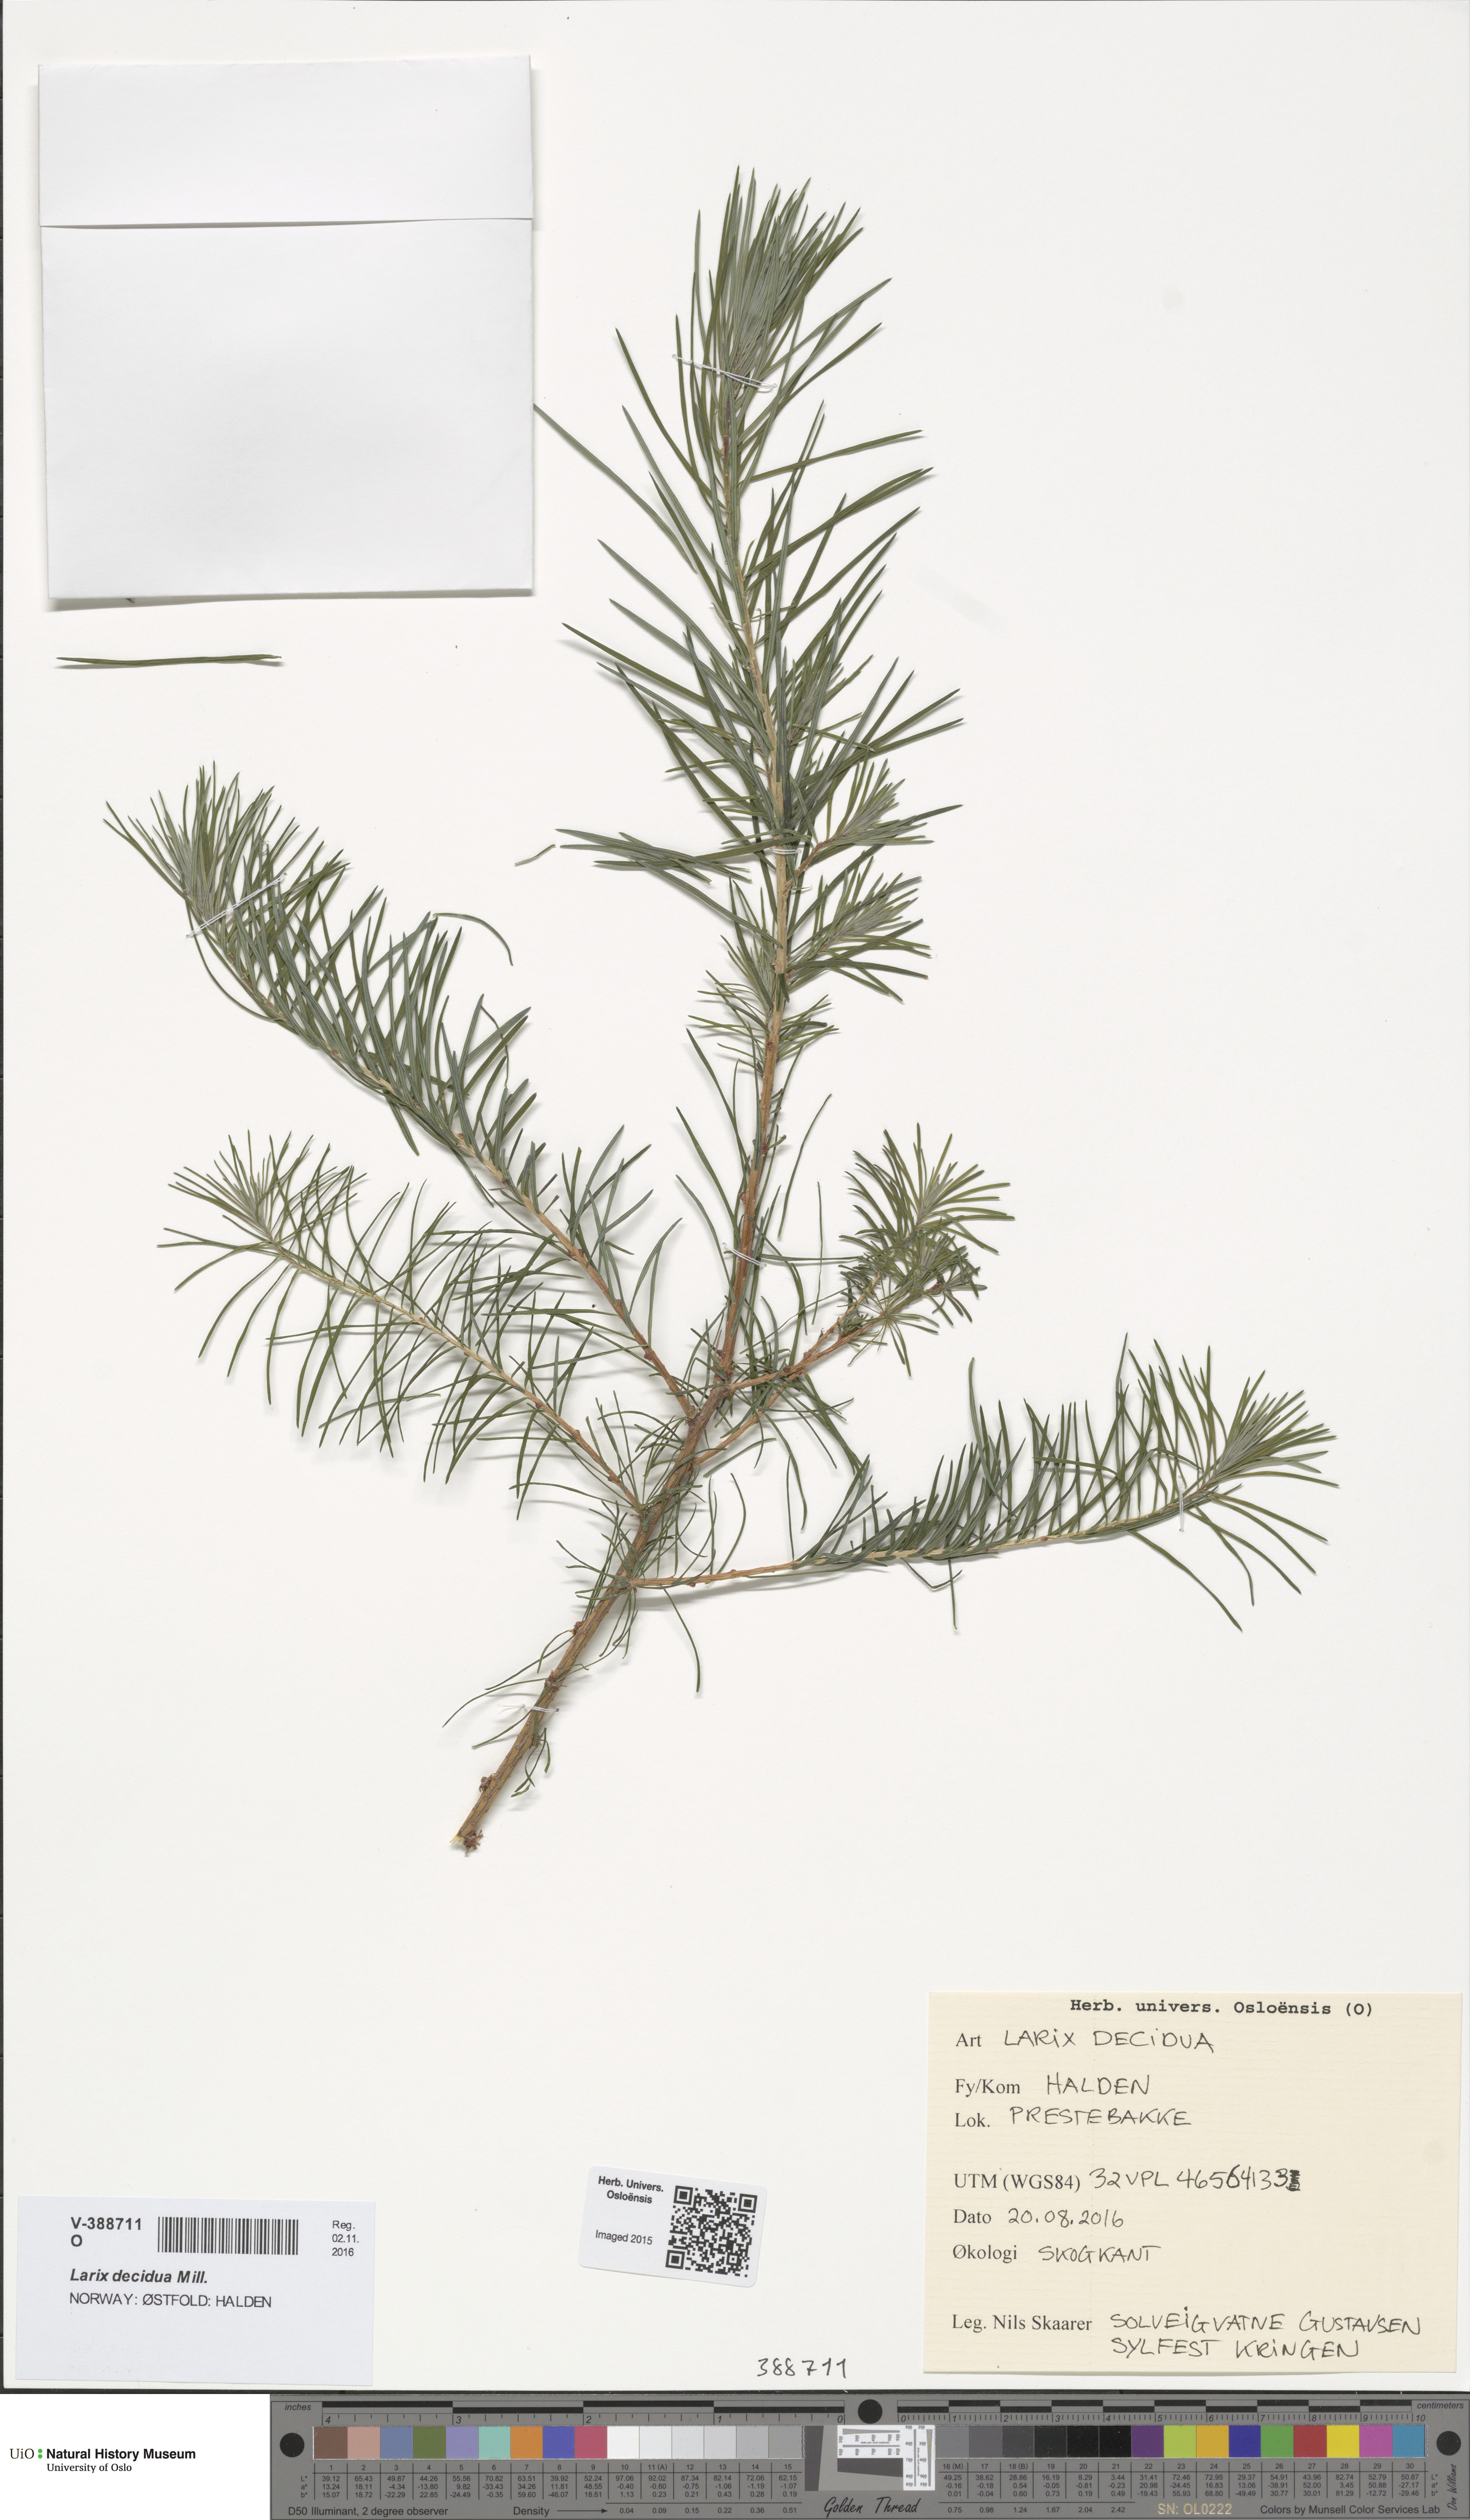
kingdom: Plantae
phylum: Tracheophyta
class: Pinopsida
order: Pinales
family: Pinaceae
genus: Larix
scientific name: Larix decidua
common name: European larch
